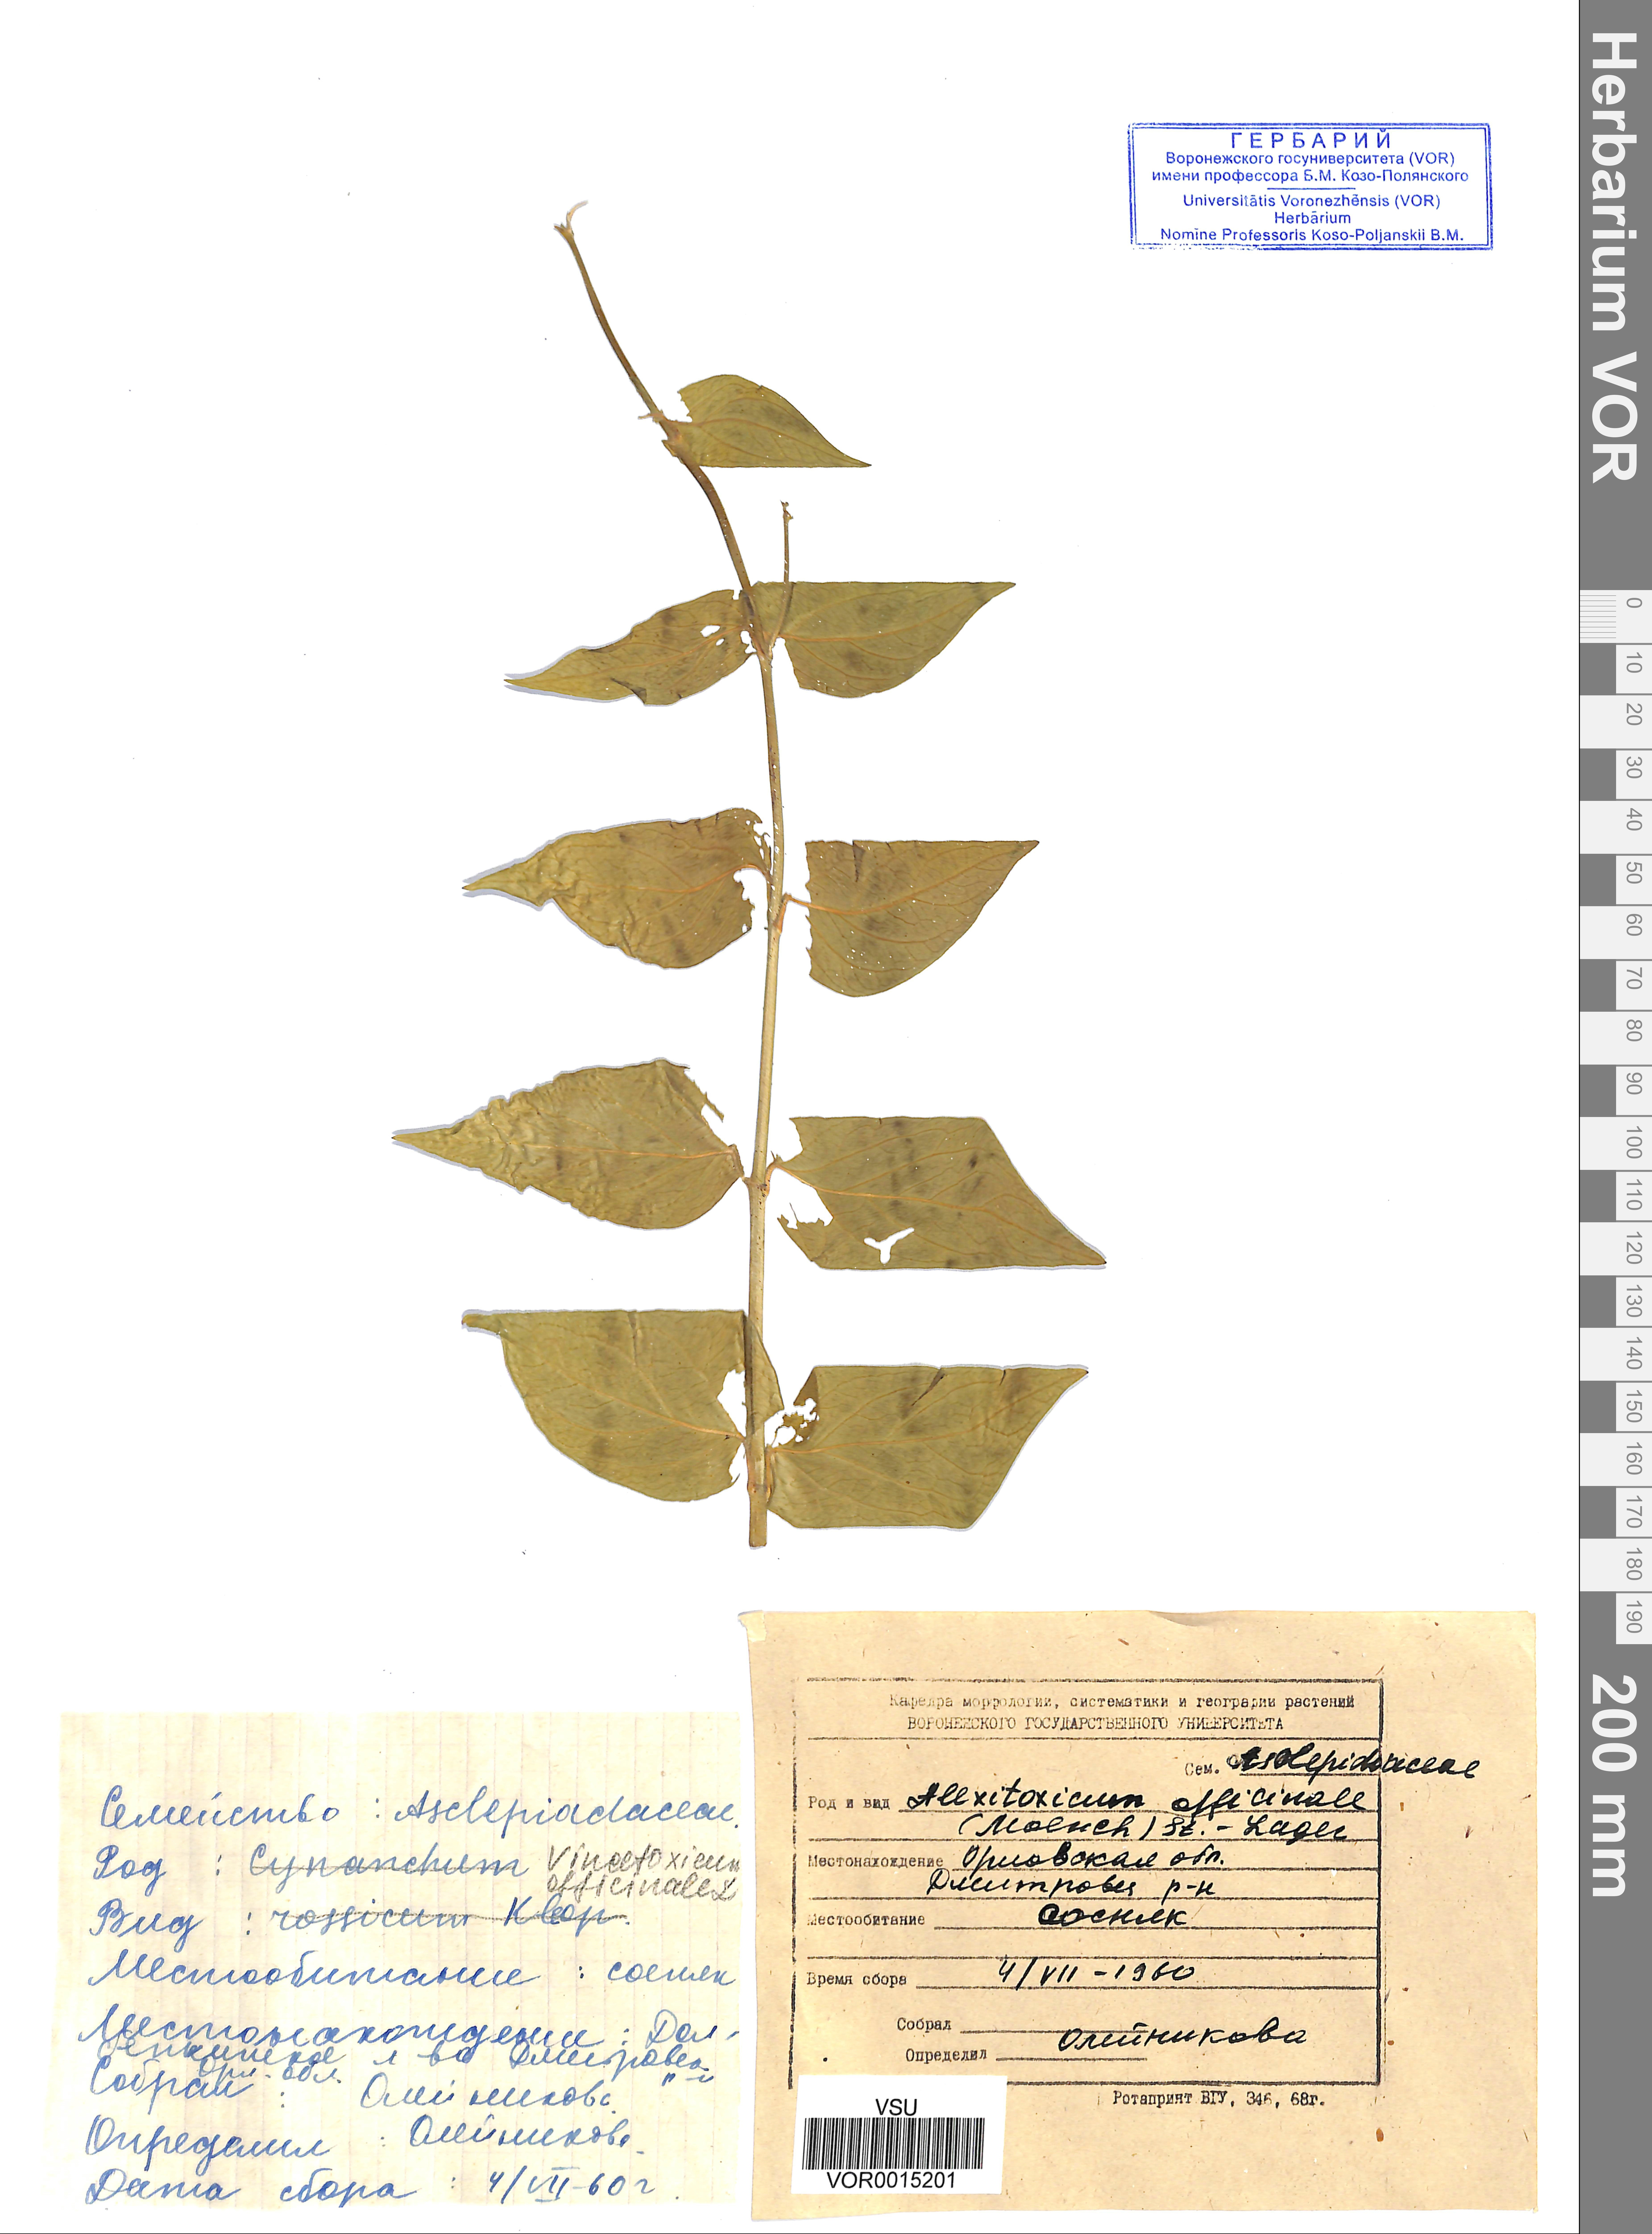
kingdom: Plantae
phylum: Tracheophyta
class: Magnoliopsida
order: Gentianales
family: Apocynaceae
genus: Vincetoxicum
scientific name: Vincetoxicum hirundinaria
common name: White swallowwort
